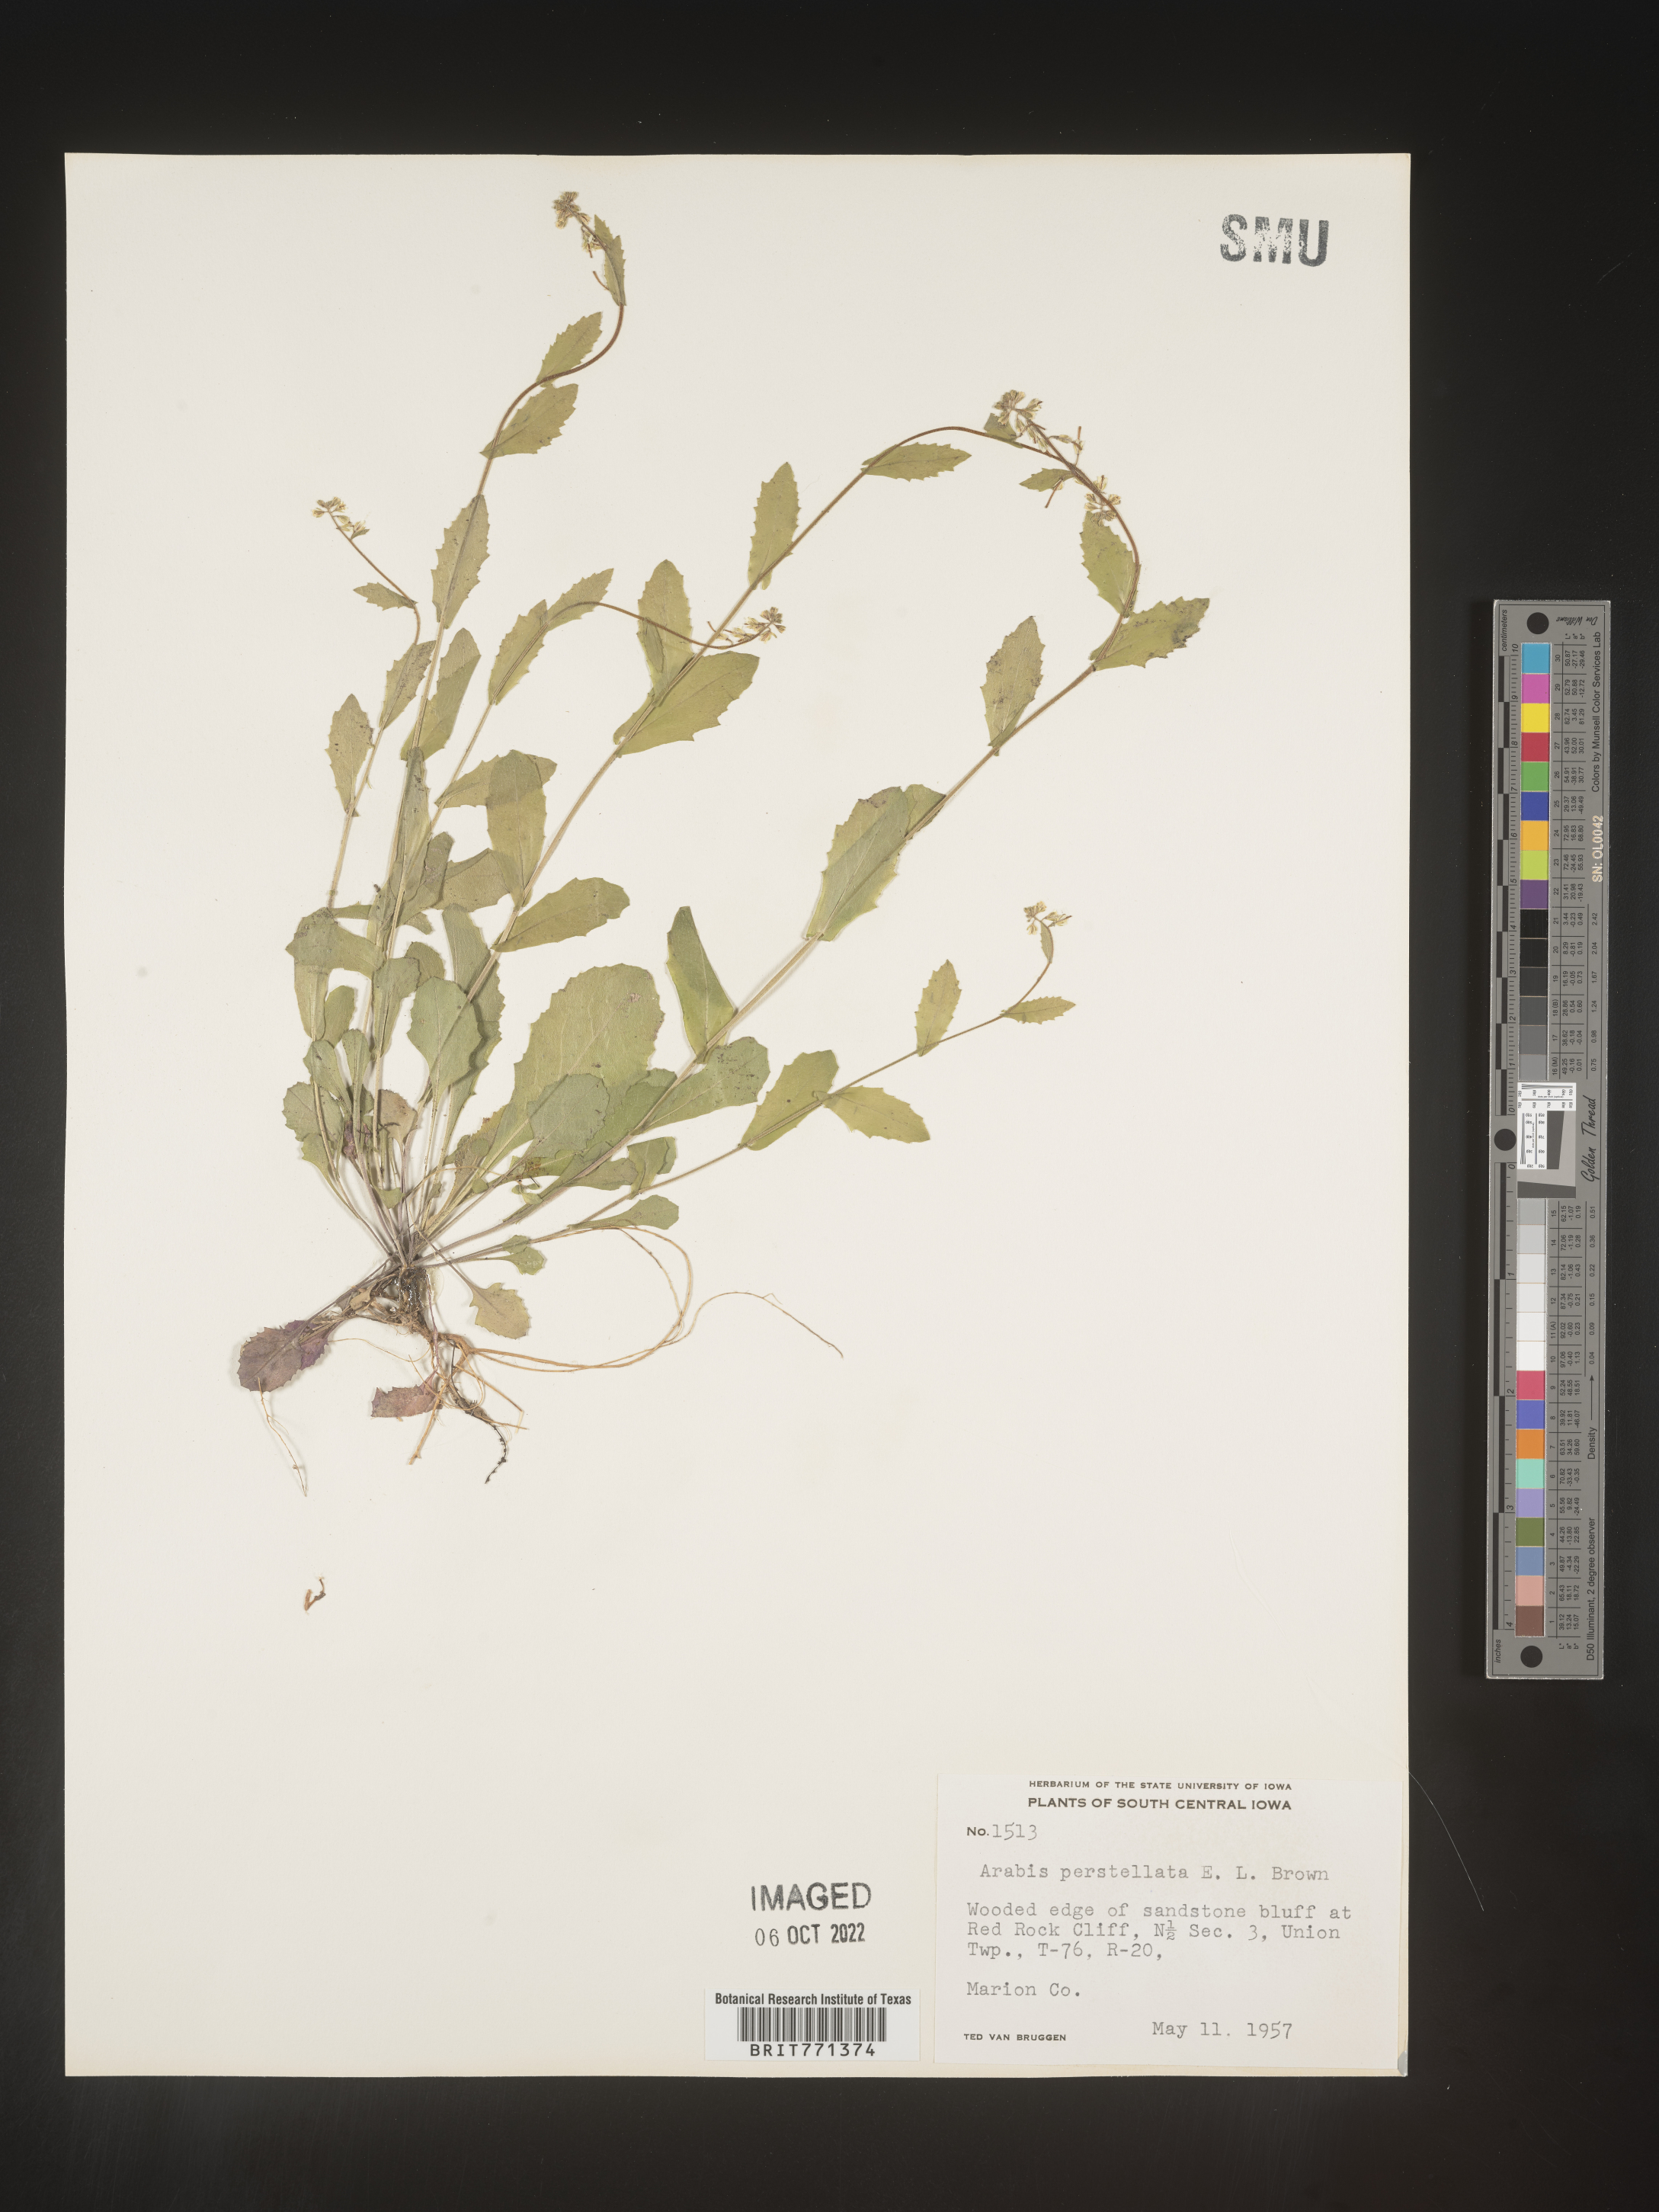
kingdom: Plantae
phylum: Tracheophyta
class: Magnoliopsida
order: Brassicales
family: Brassicaceae
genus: Arabis
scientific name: Arabis
